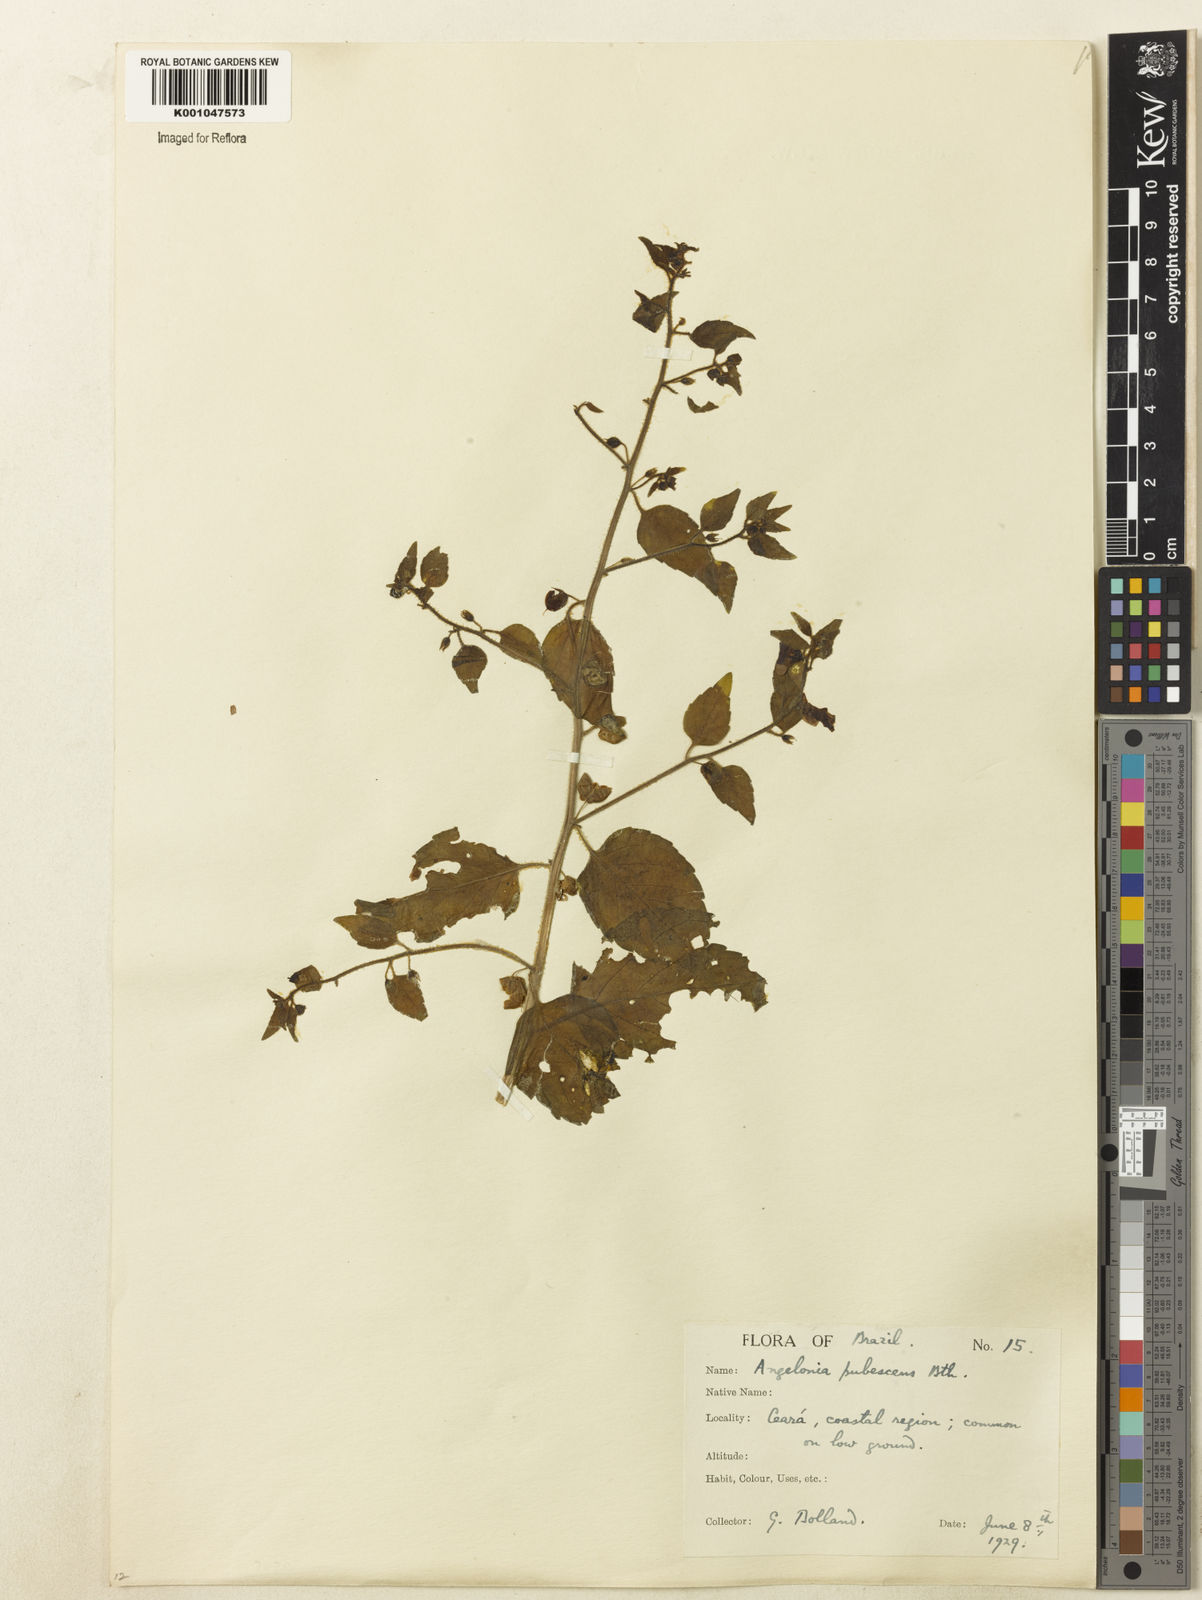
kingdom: Plantae
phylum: Tracheophyta
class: Magnoliopsida
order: Lamiales
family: Plantaginaceae
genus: Angelonia
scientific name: Angelonia pubescens
